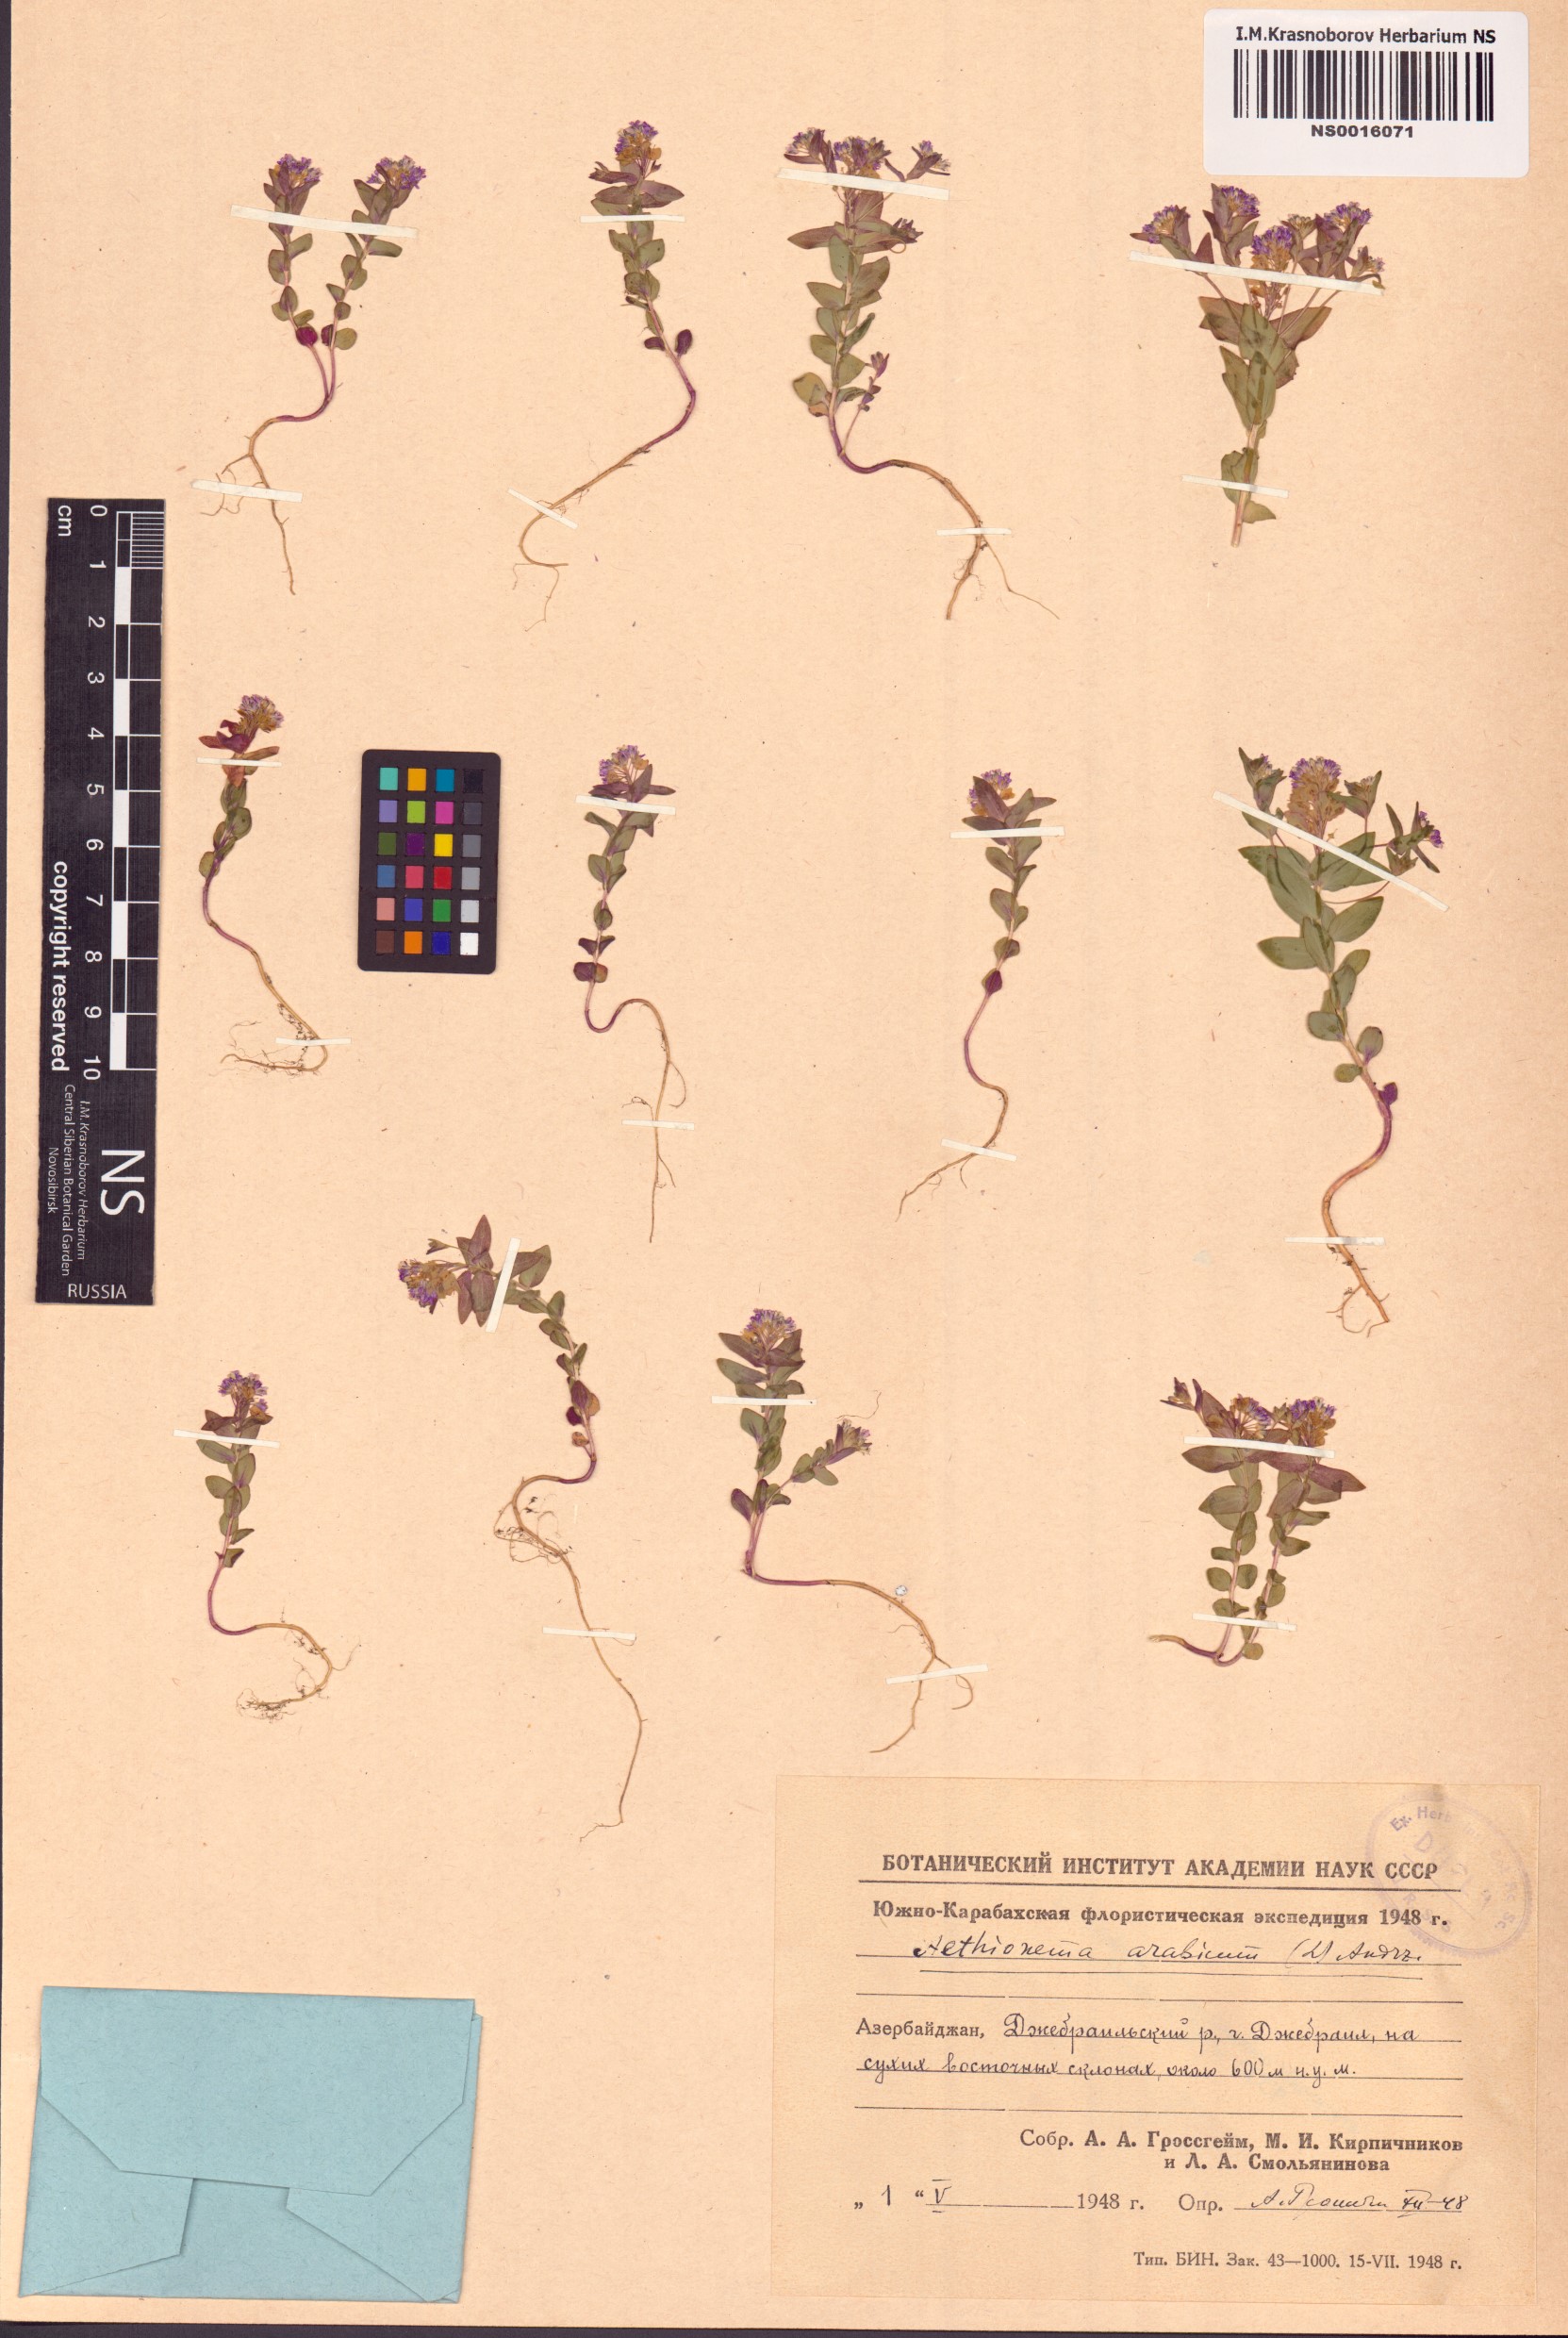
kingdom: Plantae
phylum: Tracheophyta
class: Magnoliopsida
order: Brassicales
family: Brassicaceae
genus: Aethionema
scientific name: Aethionema arabicum
